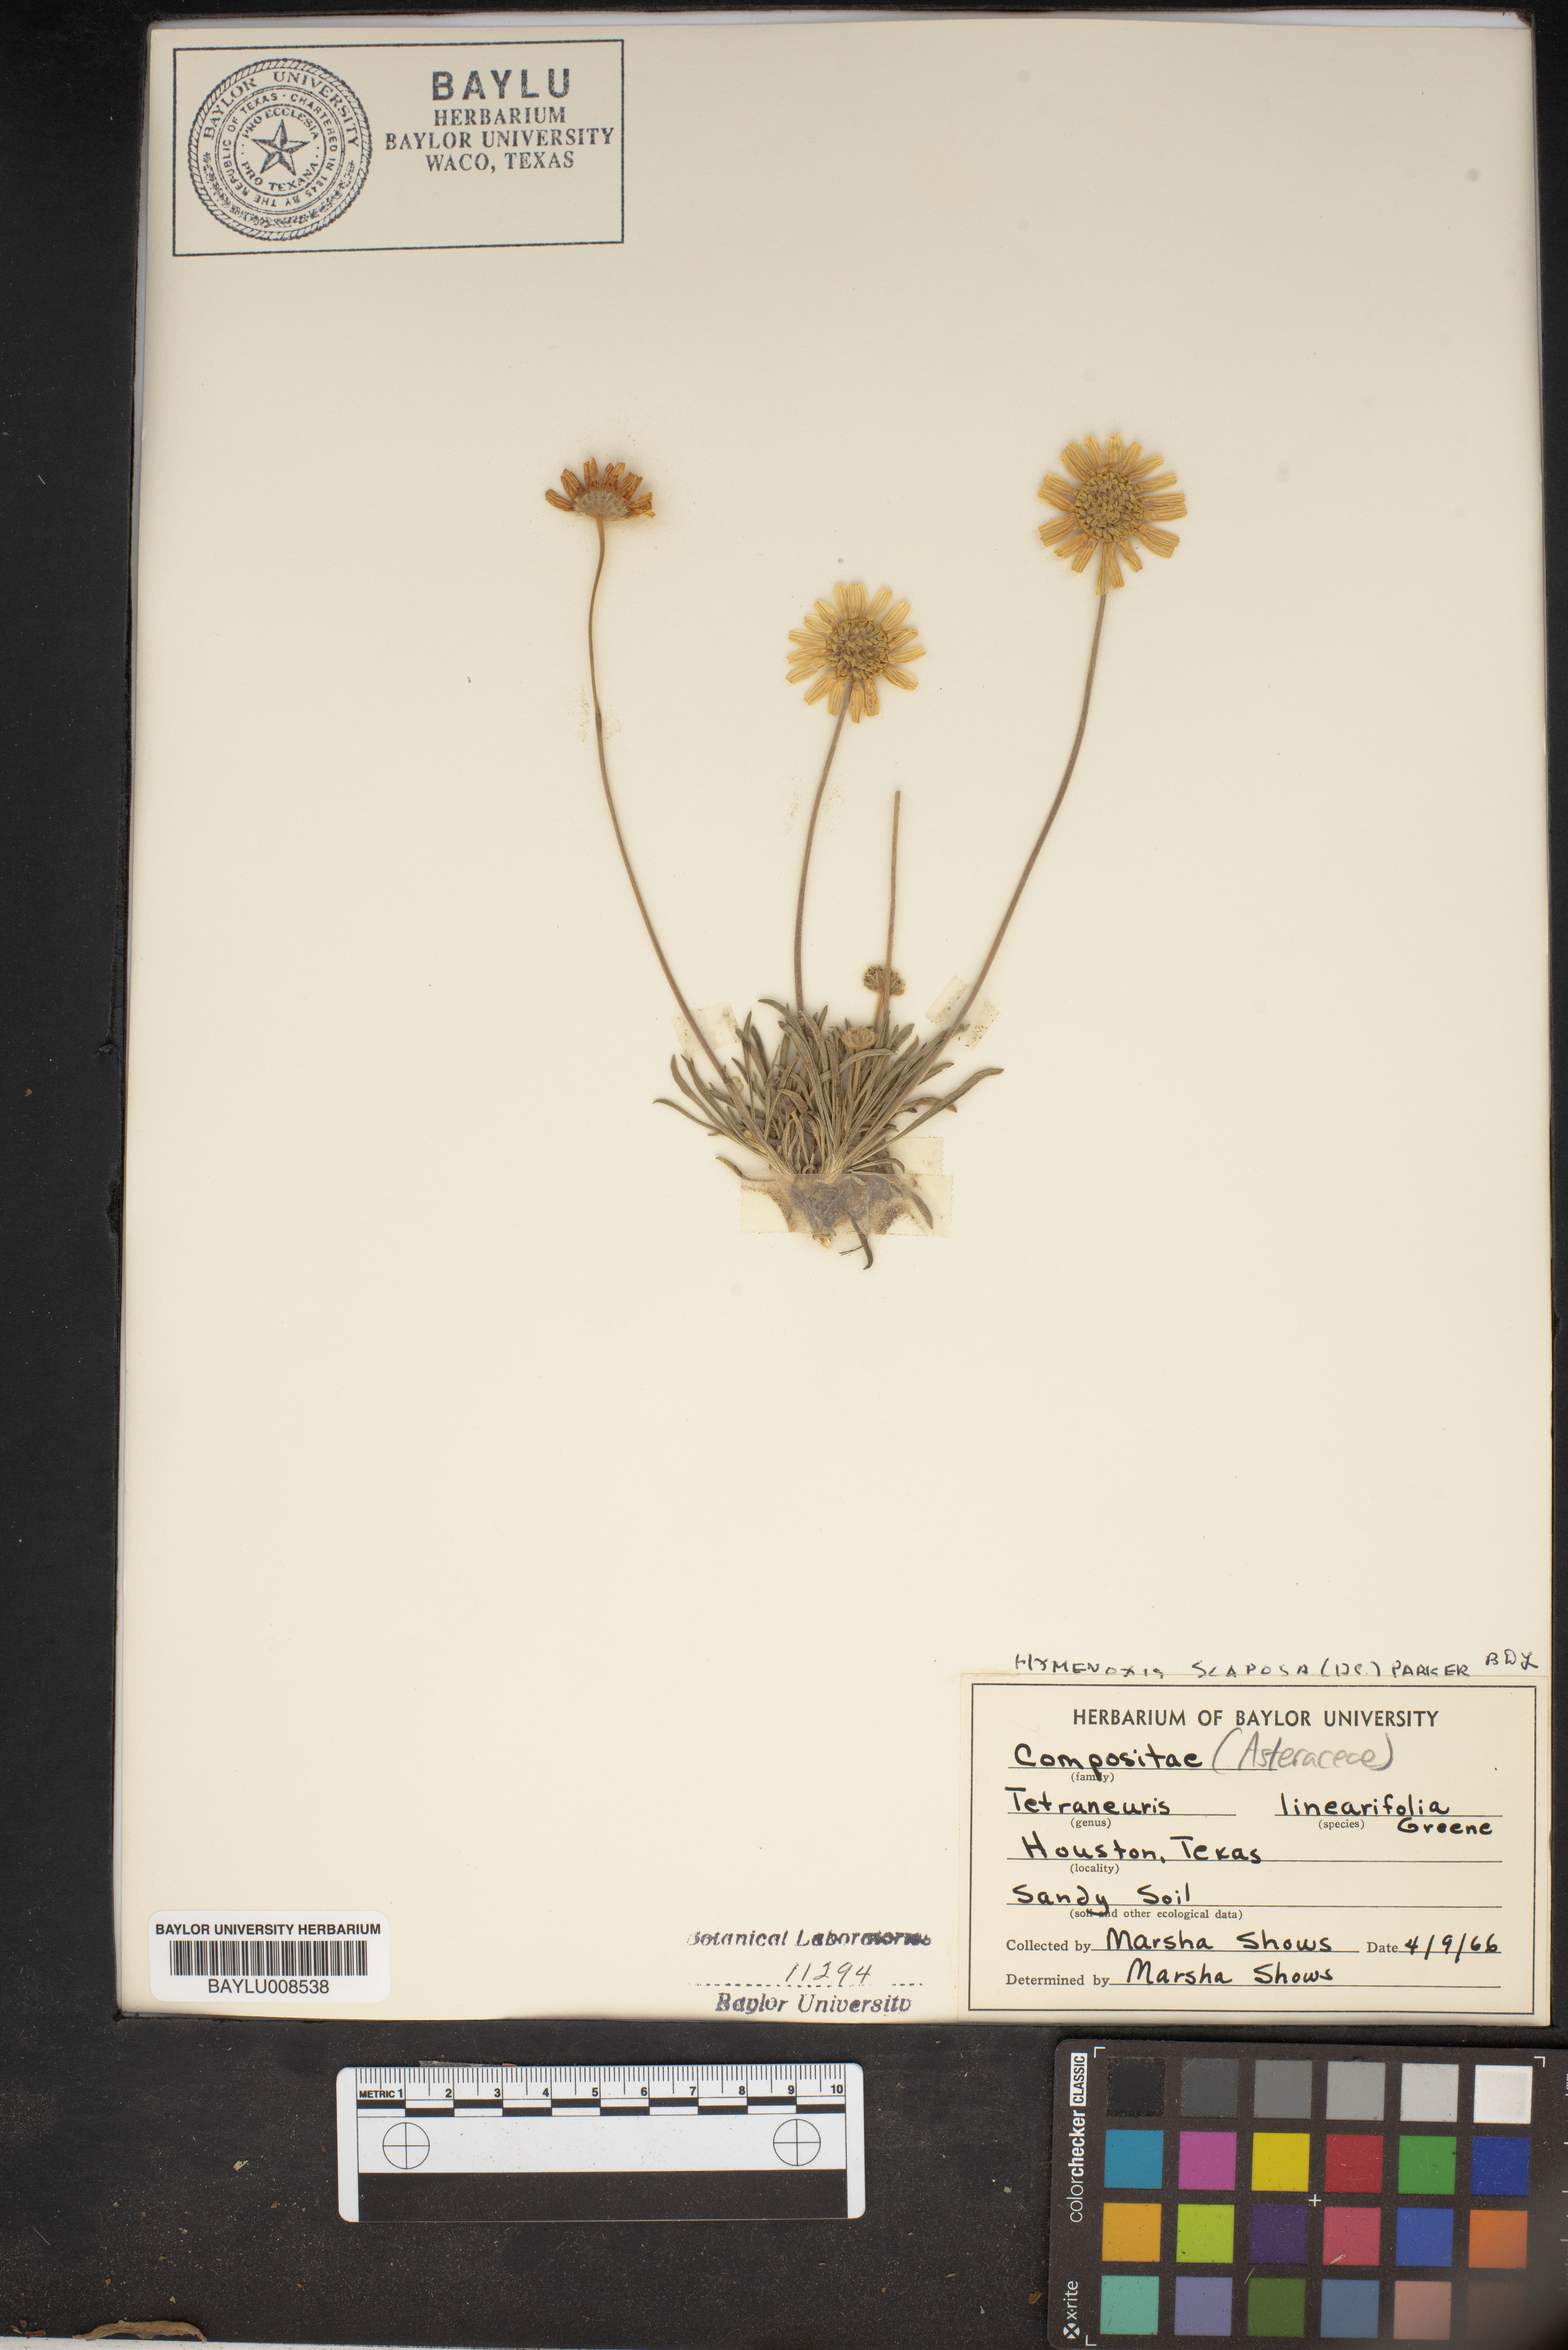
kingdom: Plantae
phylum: Tracheophyta
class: Magnoliopsida
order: Asterales
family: Asteraceae
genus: Tetraneuris
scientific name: Tetraneuris linearifolia
